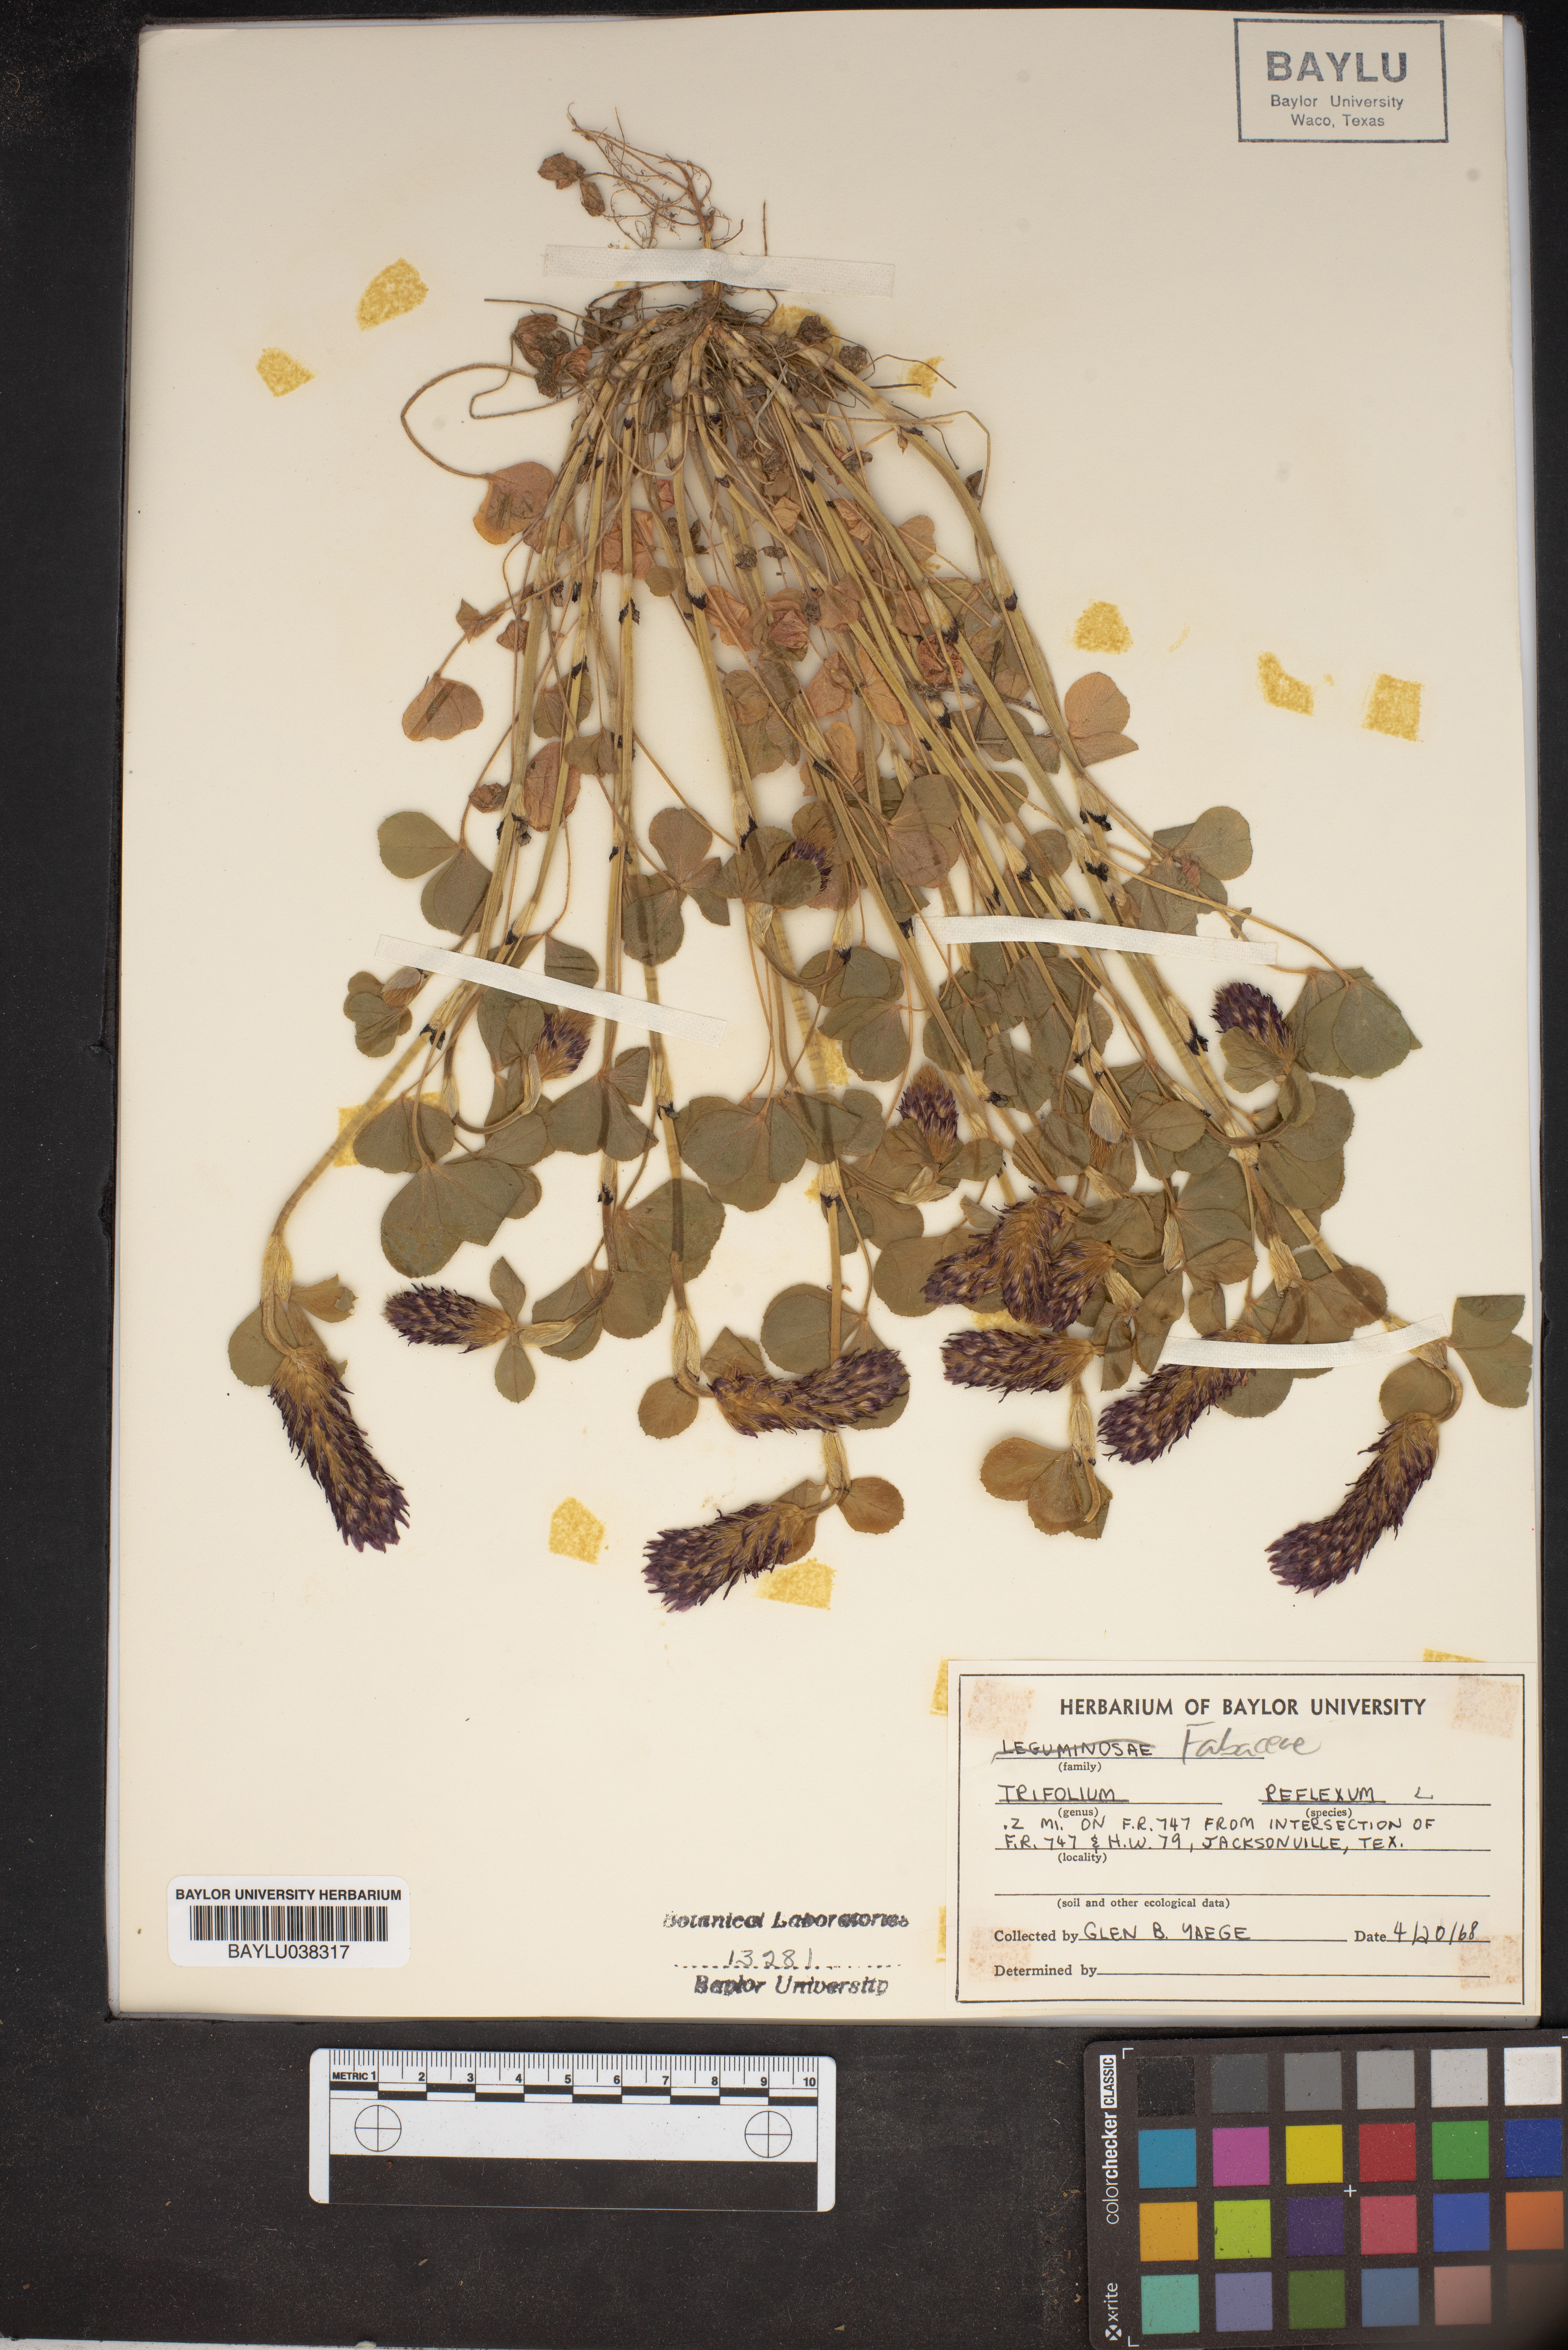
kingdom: Plantae
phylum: Tracheophyta
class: Magnoliopsida
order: Fabales
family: Fabaceae
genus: Trifolium
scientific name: Trifolium reflexum
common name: Buffalo clover
